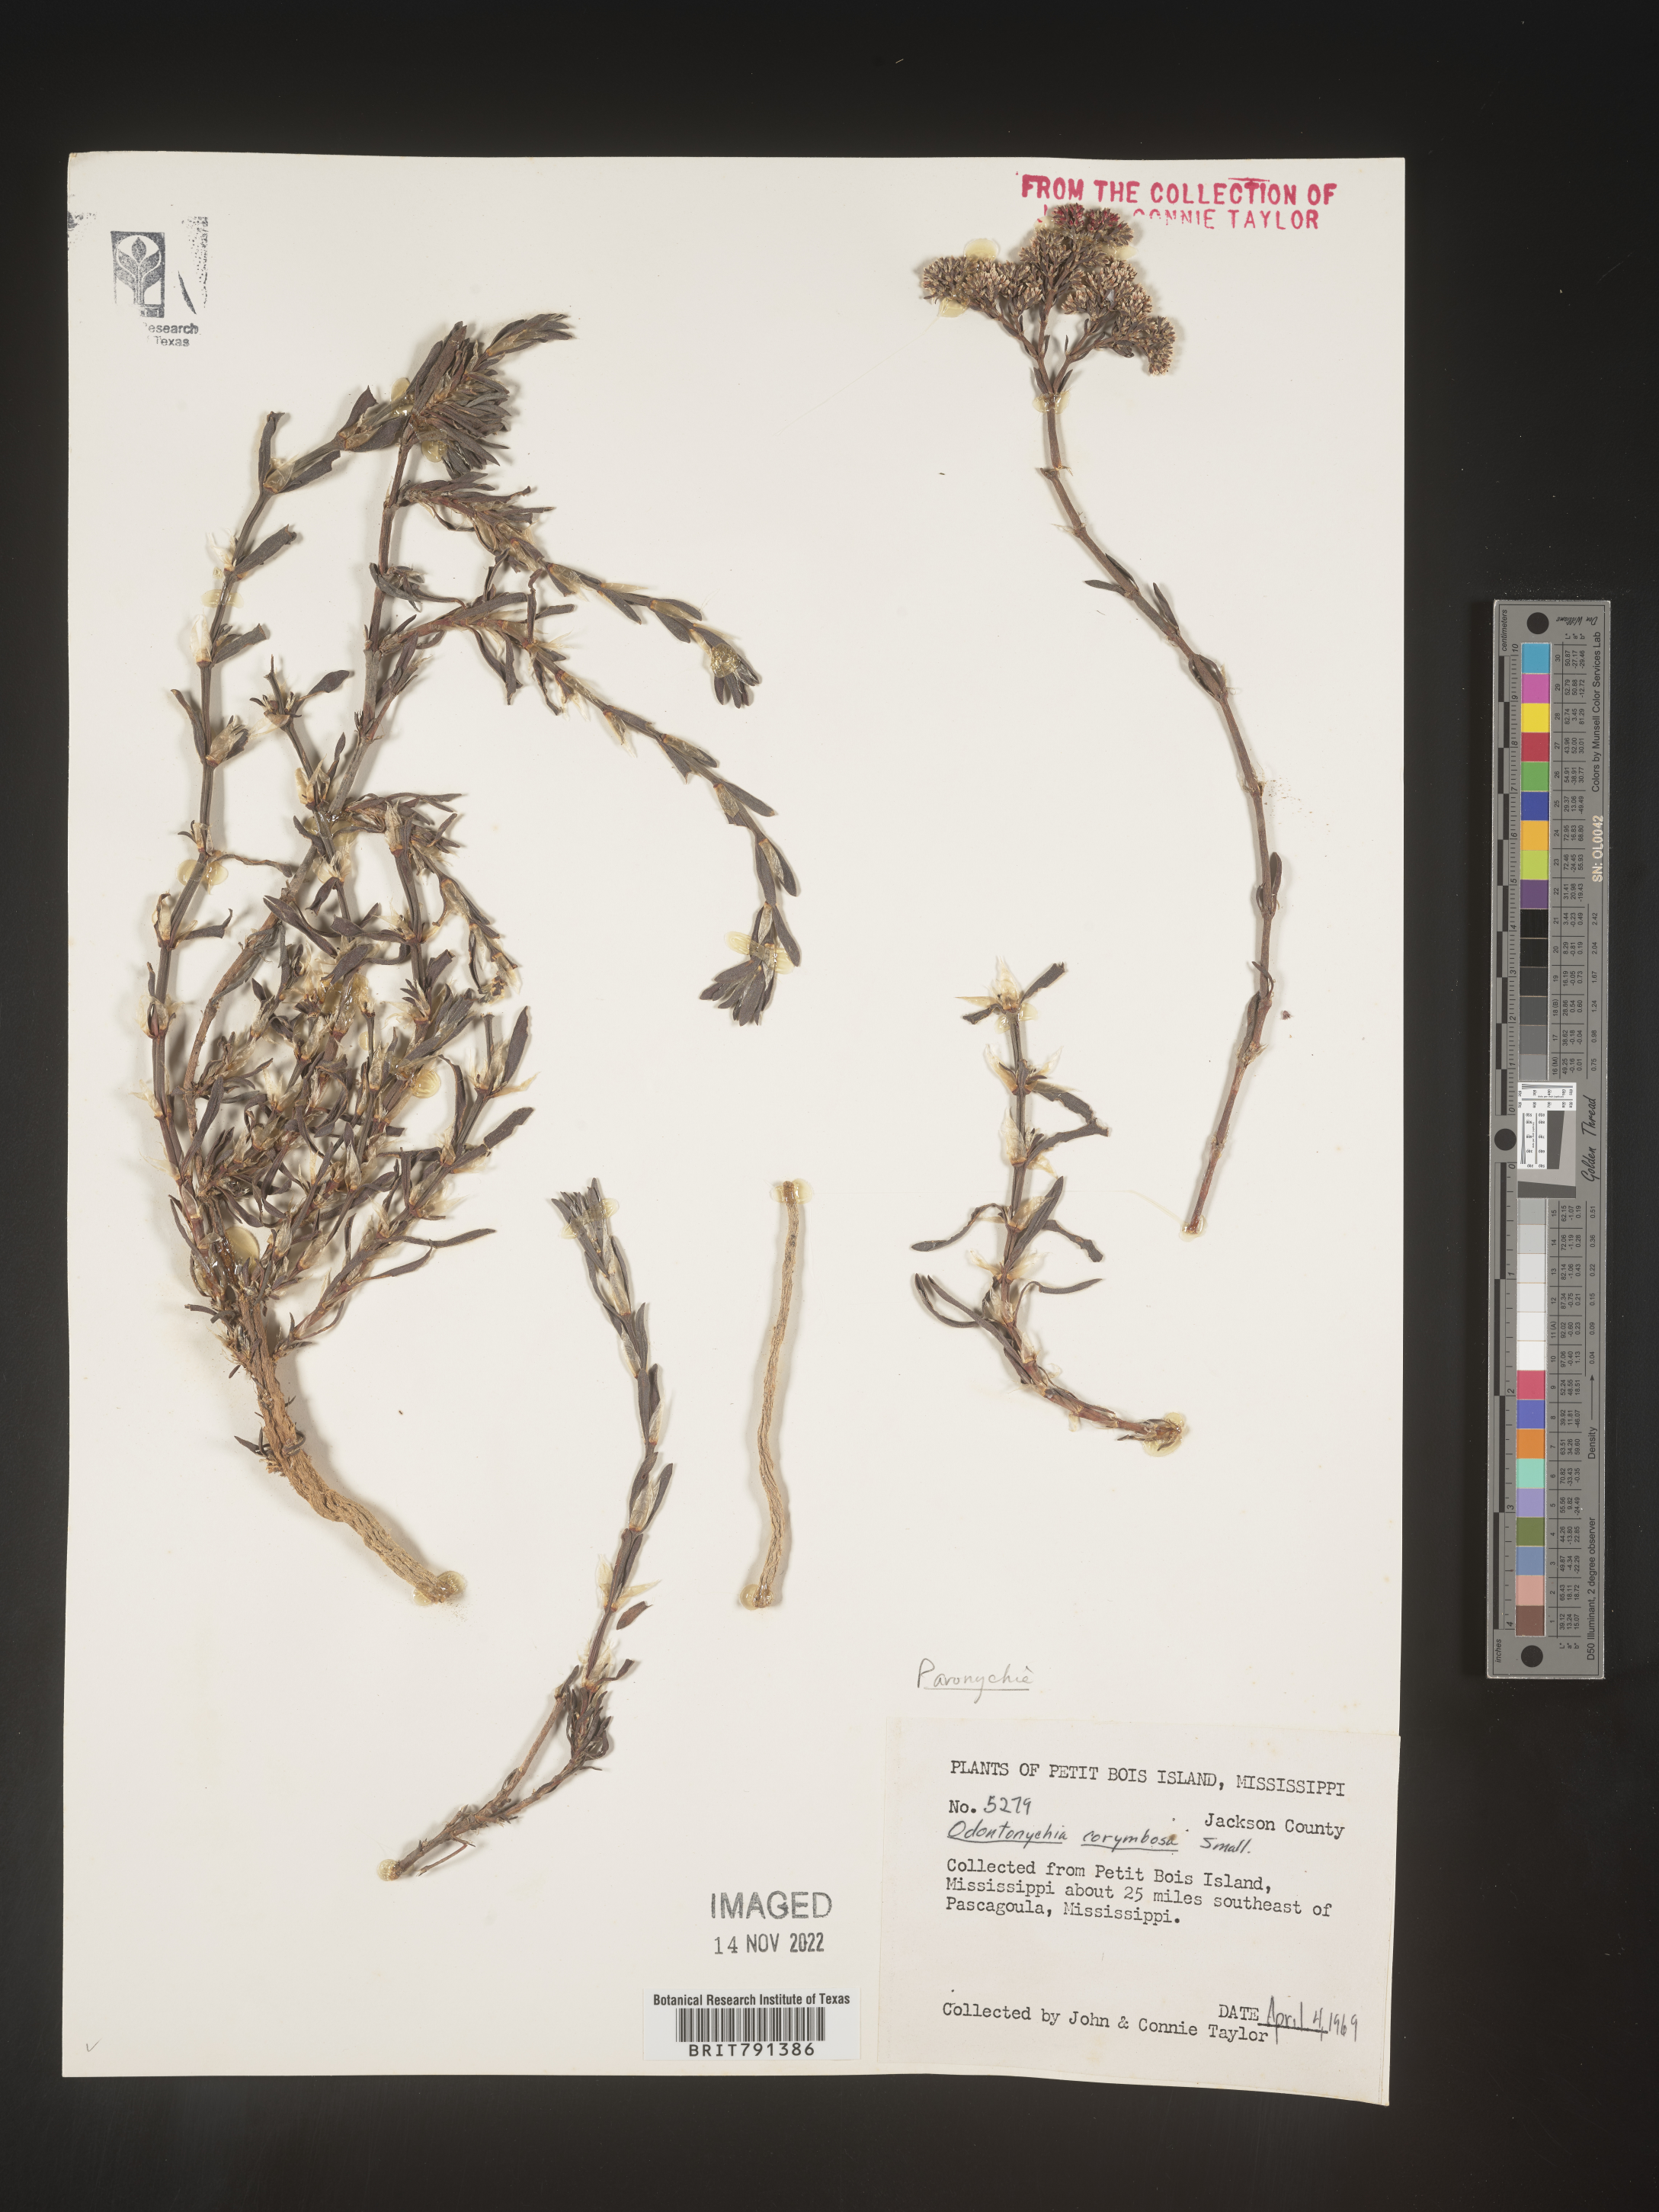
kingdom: Plantae
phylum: Tracheophyta
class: Magnoliopsida
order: Caryophyllales
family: Caryophyllaceae
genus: Paronychia
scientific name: Paronychia erecta
